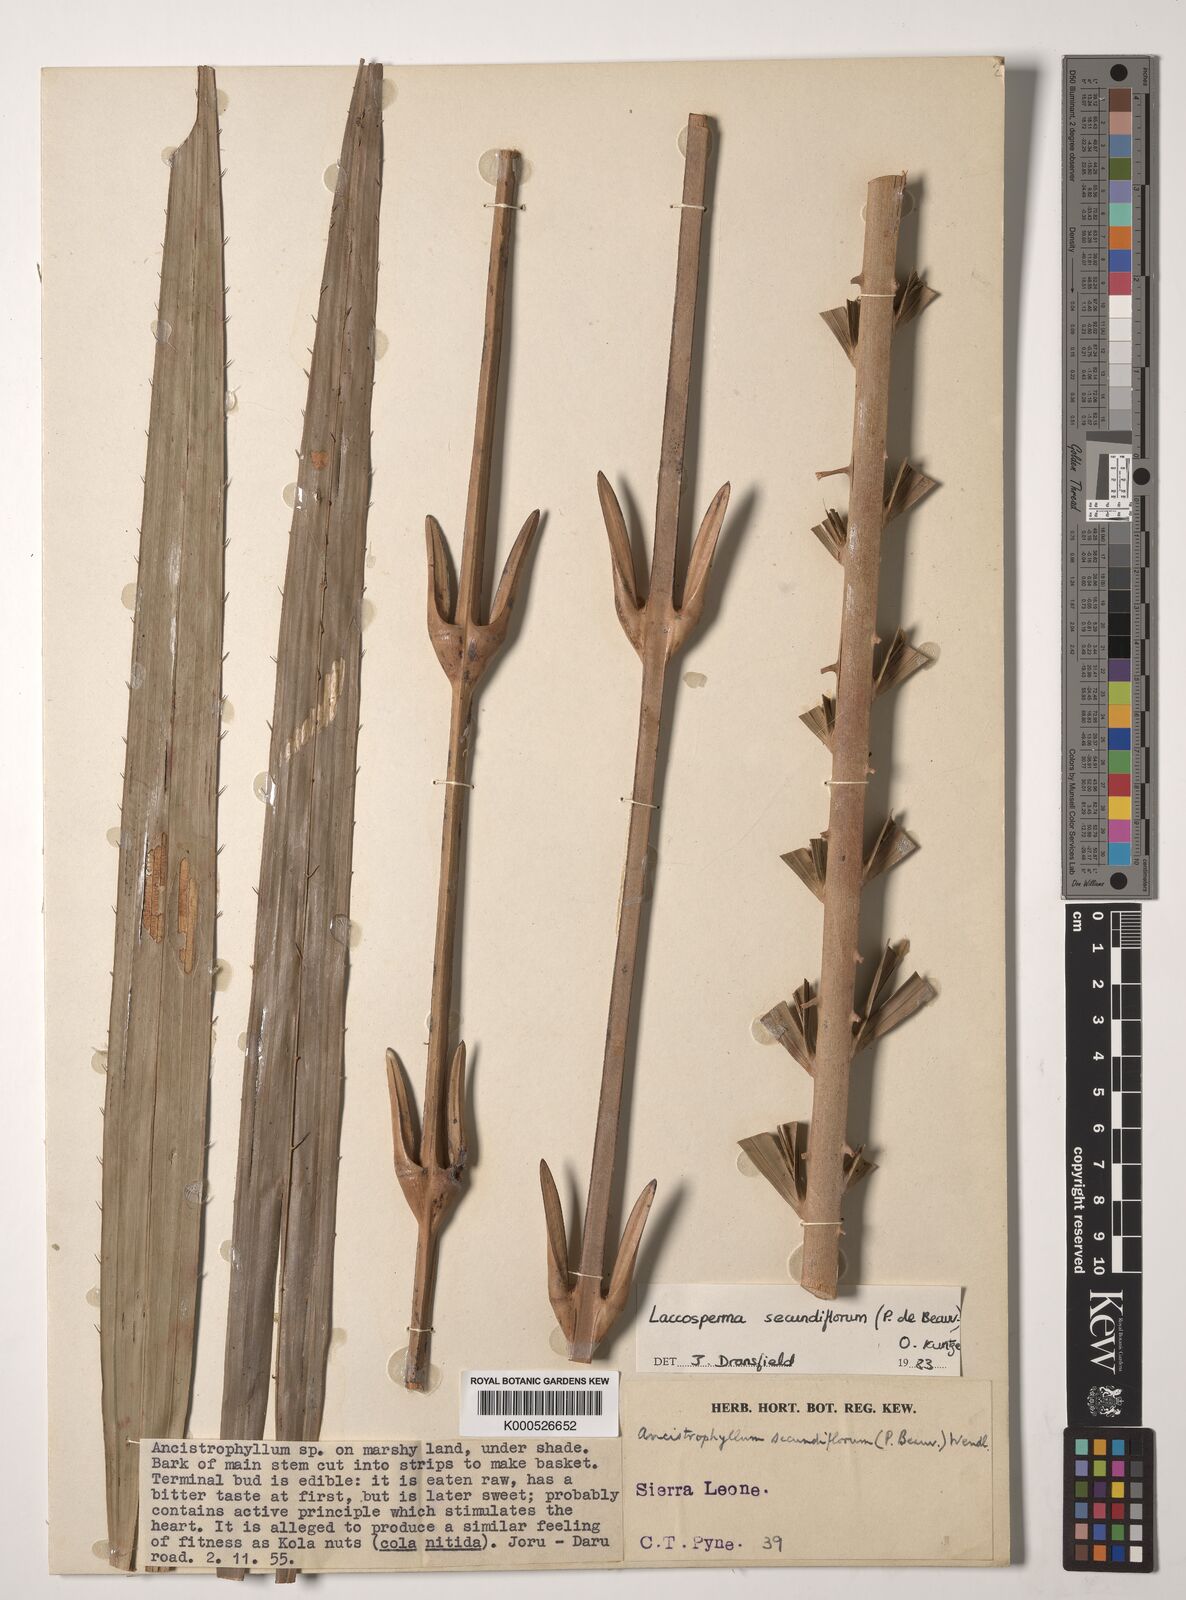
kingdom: Plantae
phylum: Tracheophyta
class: Liliopsida
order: Arecales
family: Arecaceae
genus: Laccosperma
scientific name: Laccosperma secundiflorum
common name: Rattan
